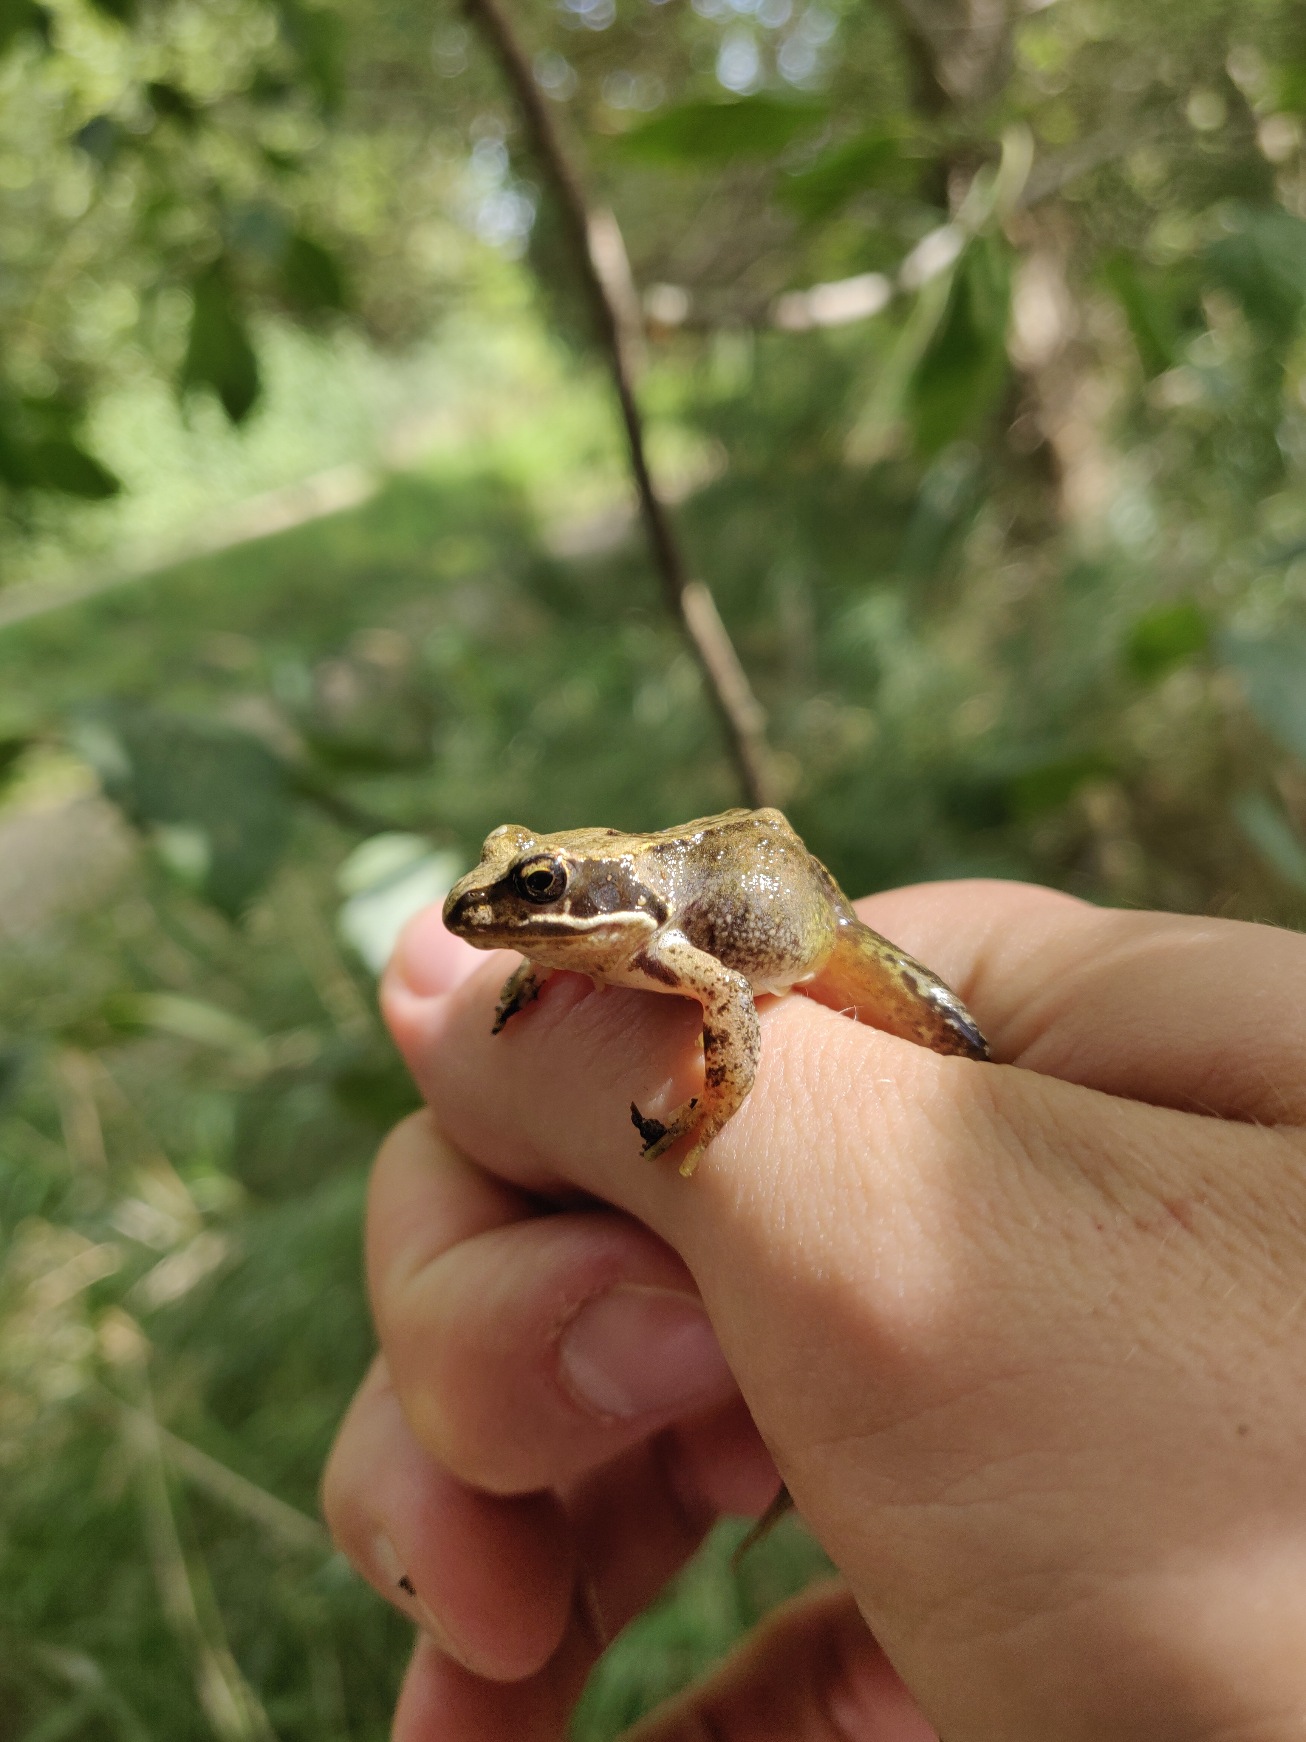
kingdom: Animalia
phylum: Chordata
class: Amphibia
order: Anura
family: Ranidae
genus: Rana
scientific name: Rana temporaria
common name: Butsnudet frø
